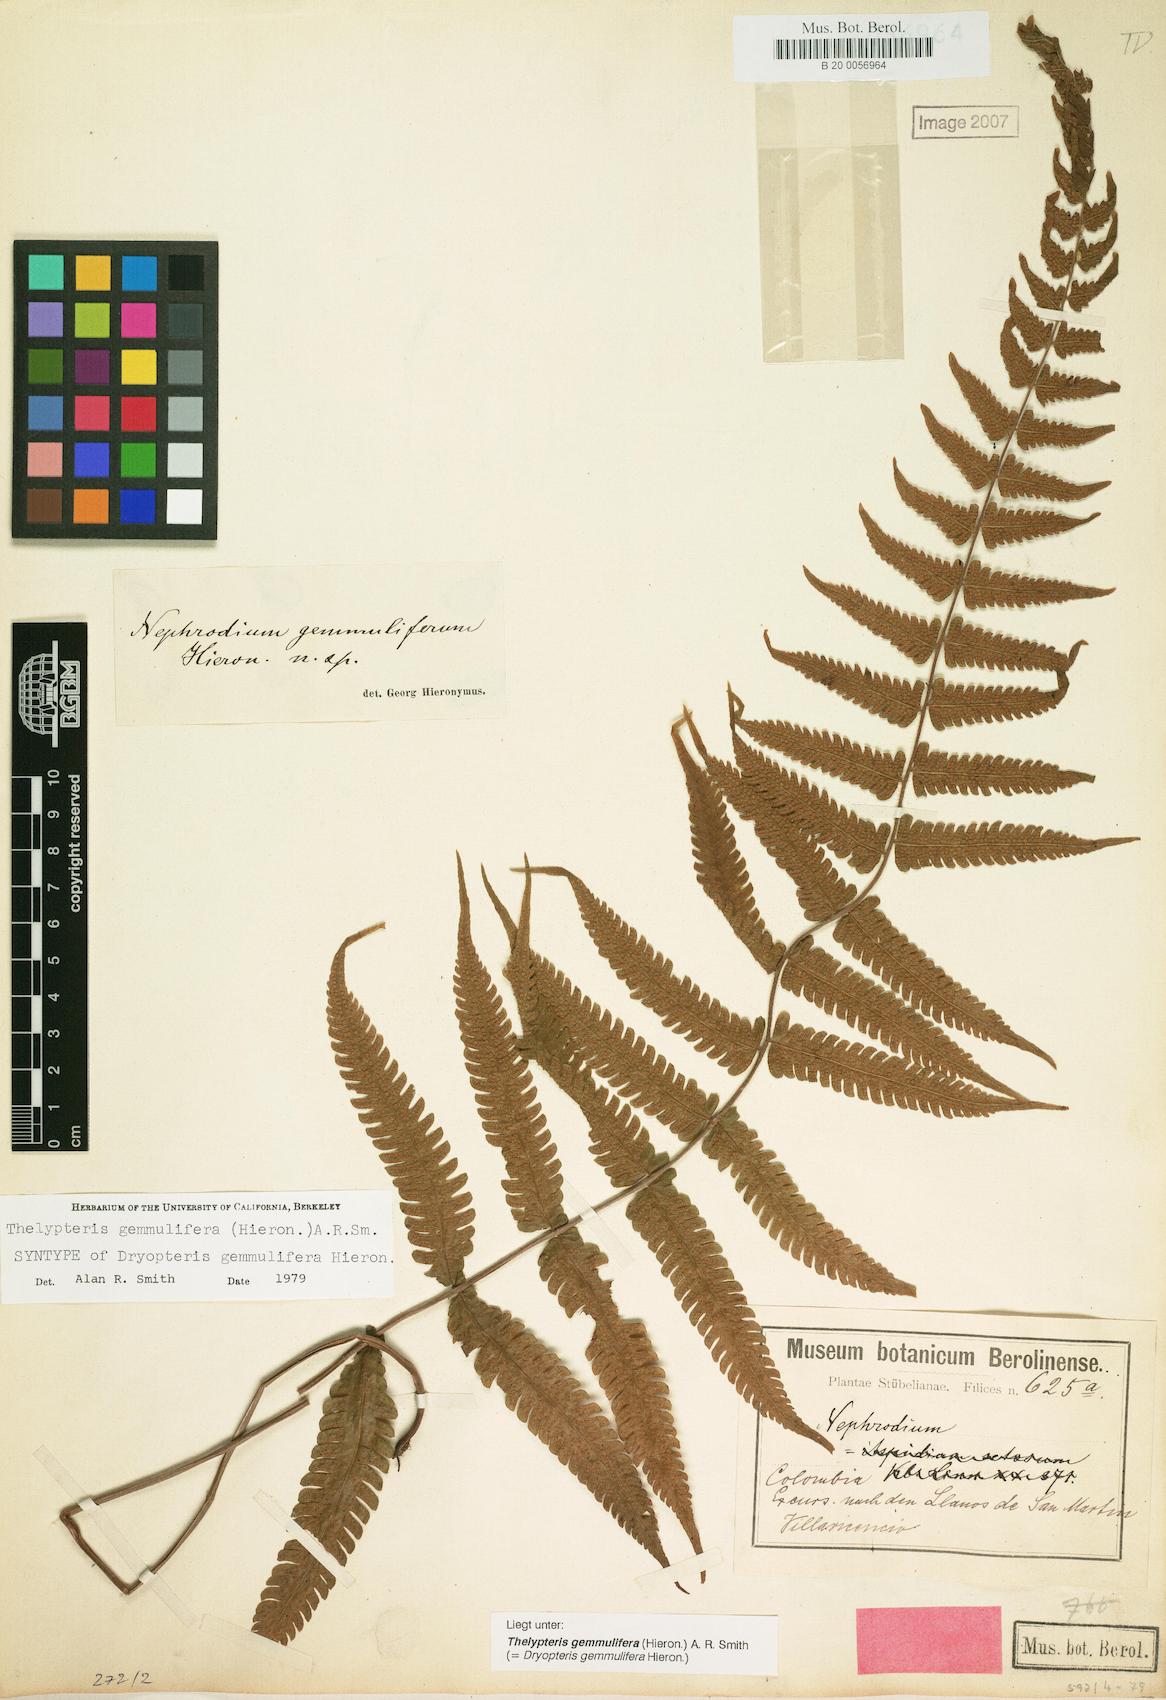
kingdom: Plantae
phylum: Tracheophyta
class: Polypodiopsida
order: Polypodiales
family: Thelypteridaceae
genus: Goniopteris
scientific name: Goniopteris gemmulifera
